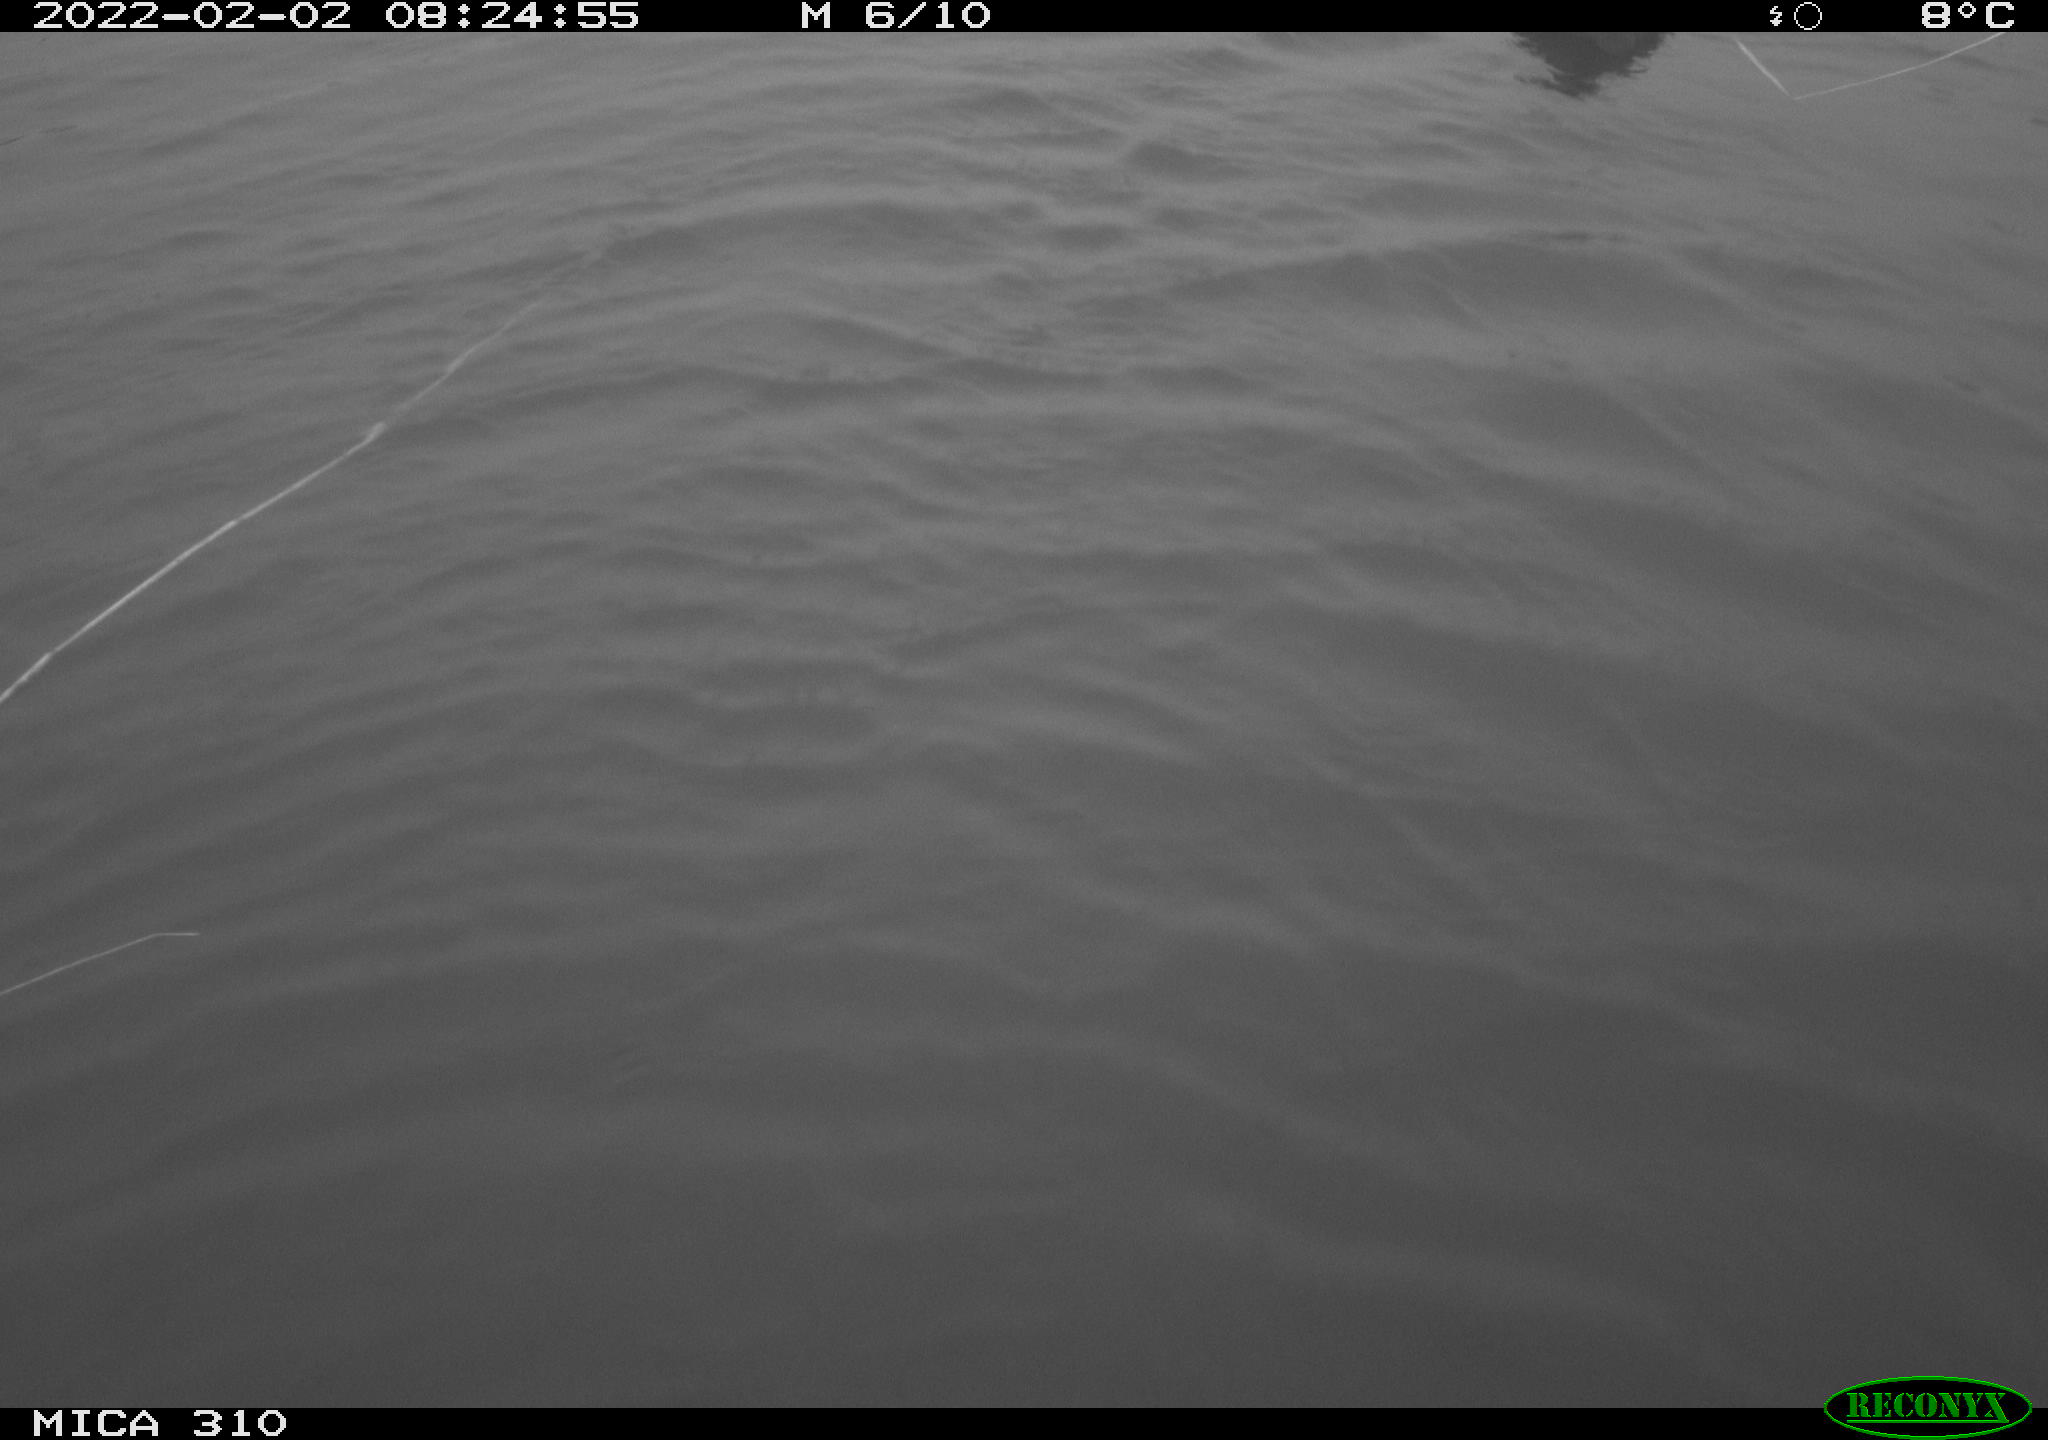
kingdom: Animalia
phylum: Chordata
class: Aves
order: Gruiformes
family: Rallidae
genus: Fulica
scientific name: Fulica atra
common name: Eurasian coot
